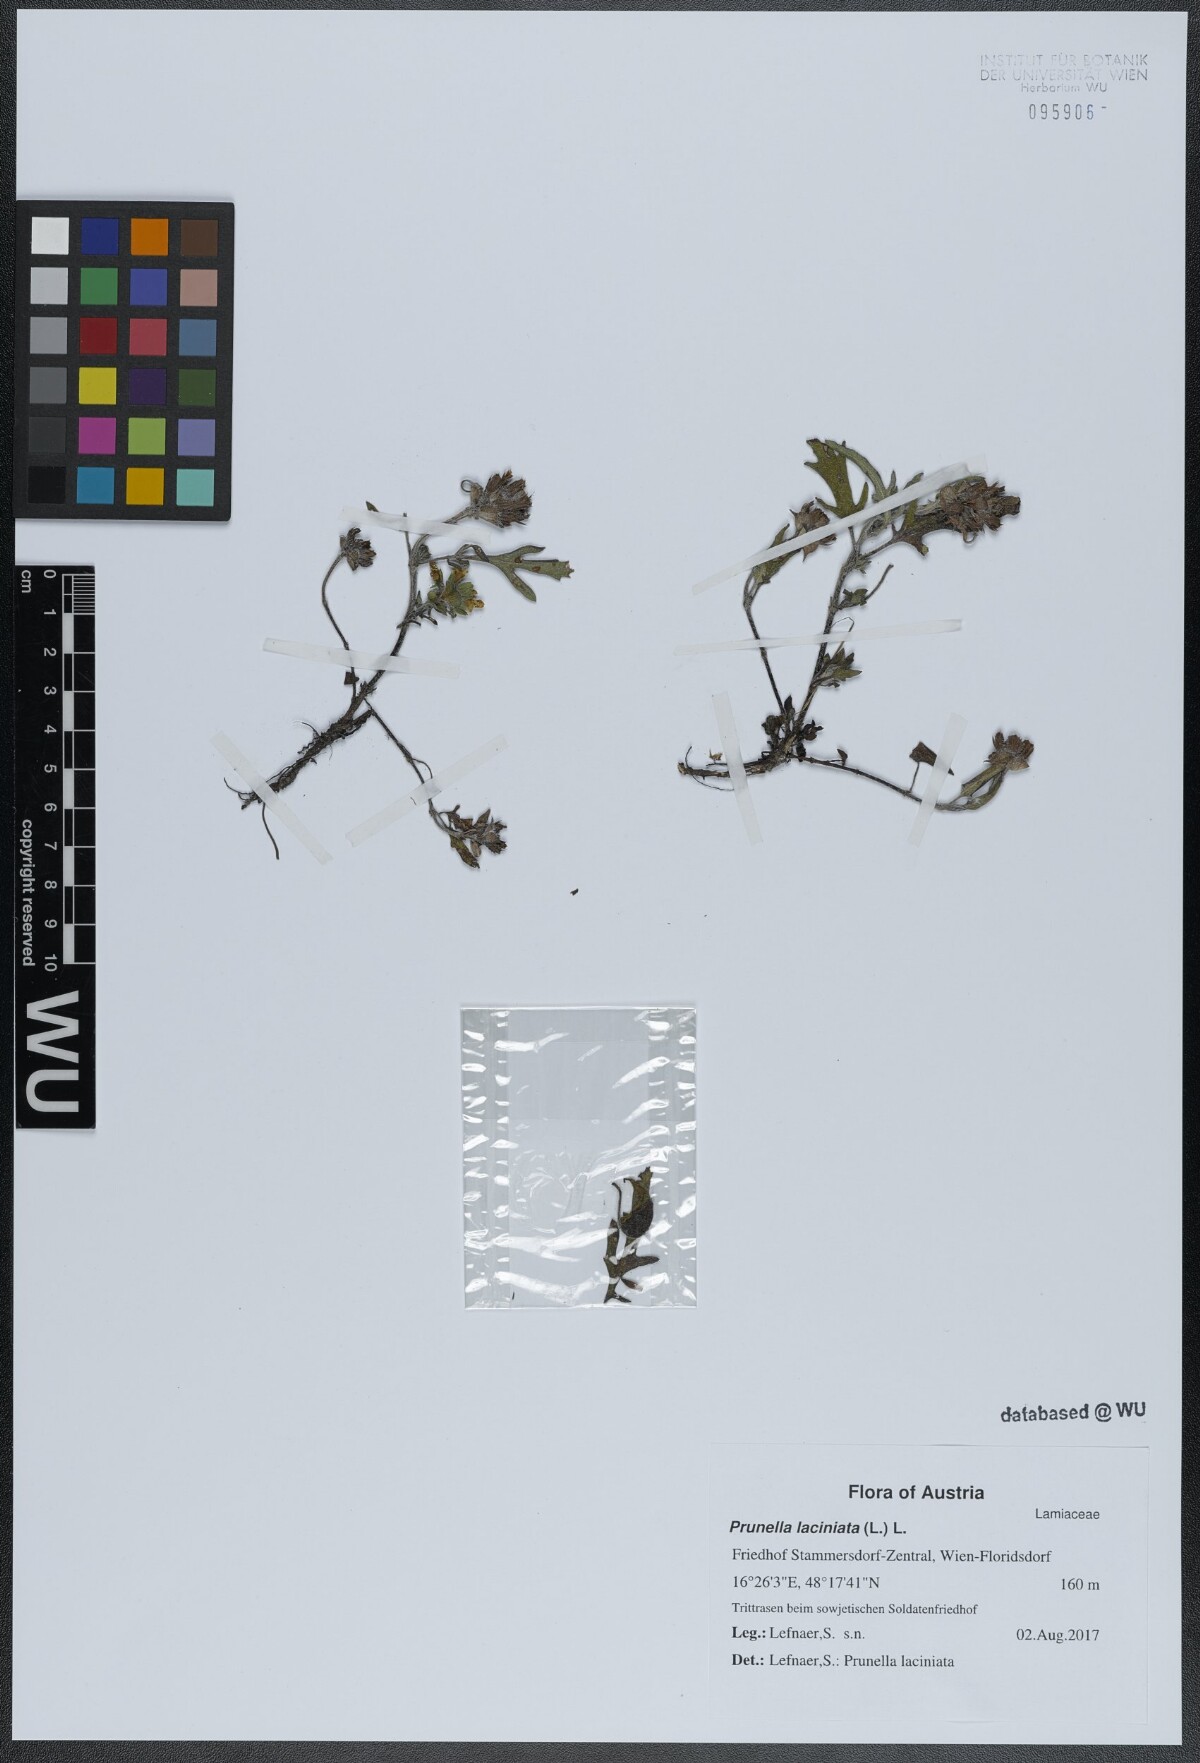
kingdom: Plantae
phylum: Tracheophyta
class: Magnoliopsida
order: Lamiales
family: Lamiaceae
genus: Prunella
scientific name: Prunella laciniata
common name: Cut-leaved selfheal
